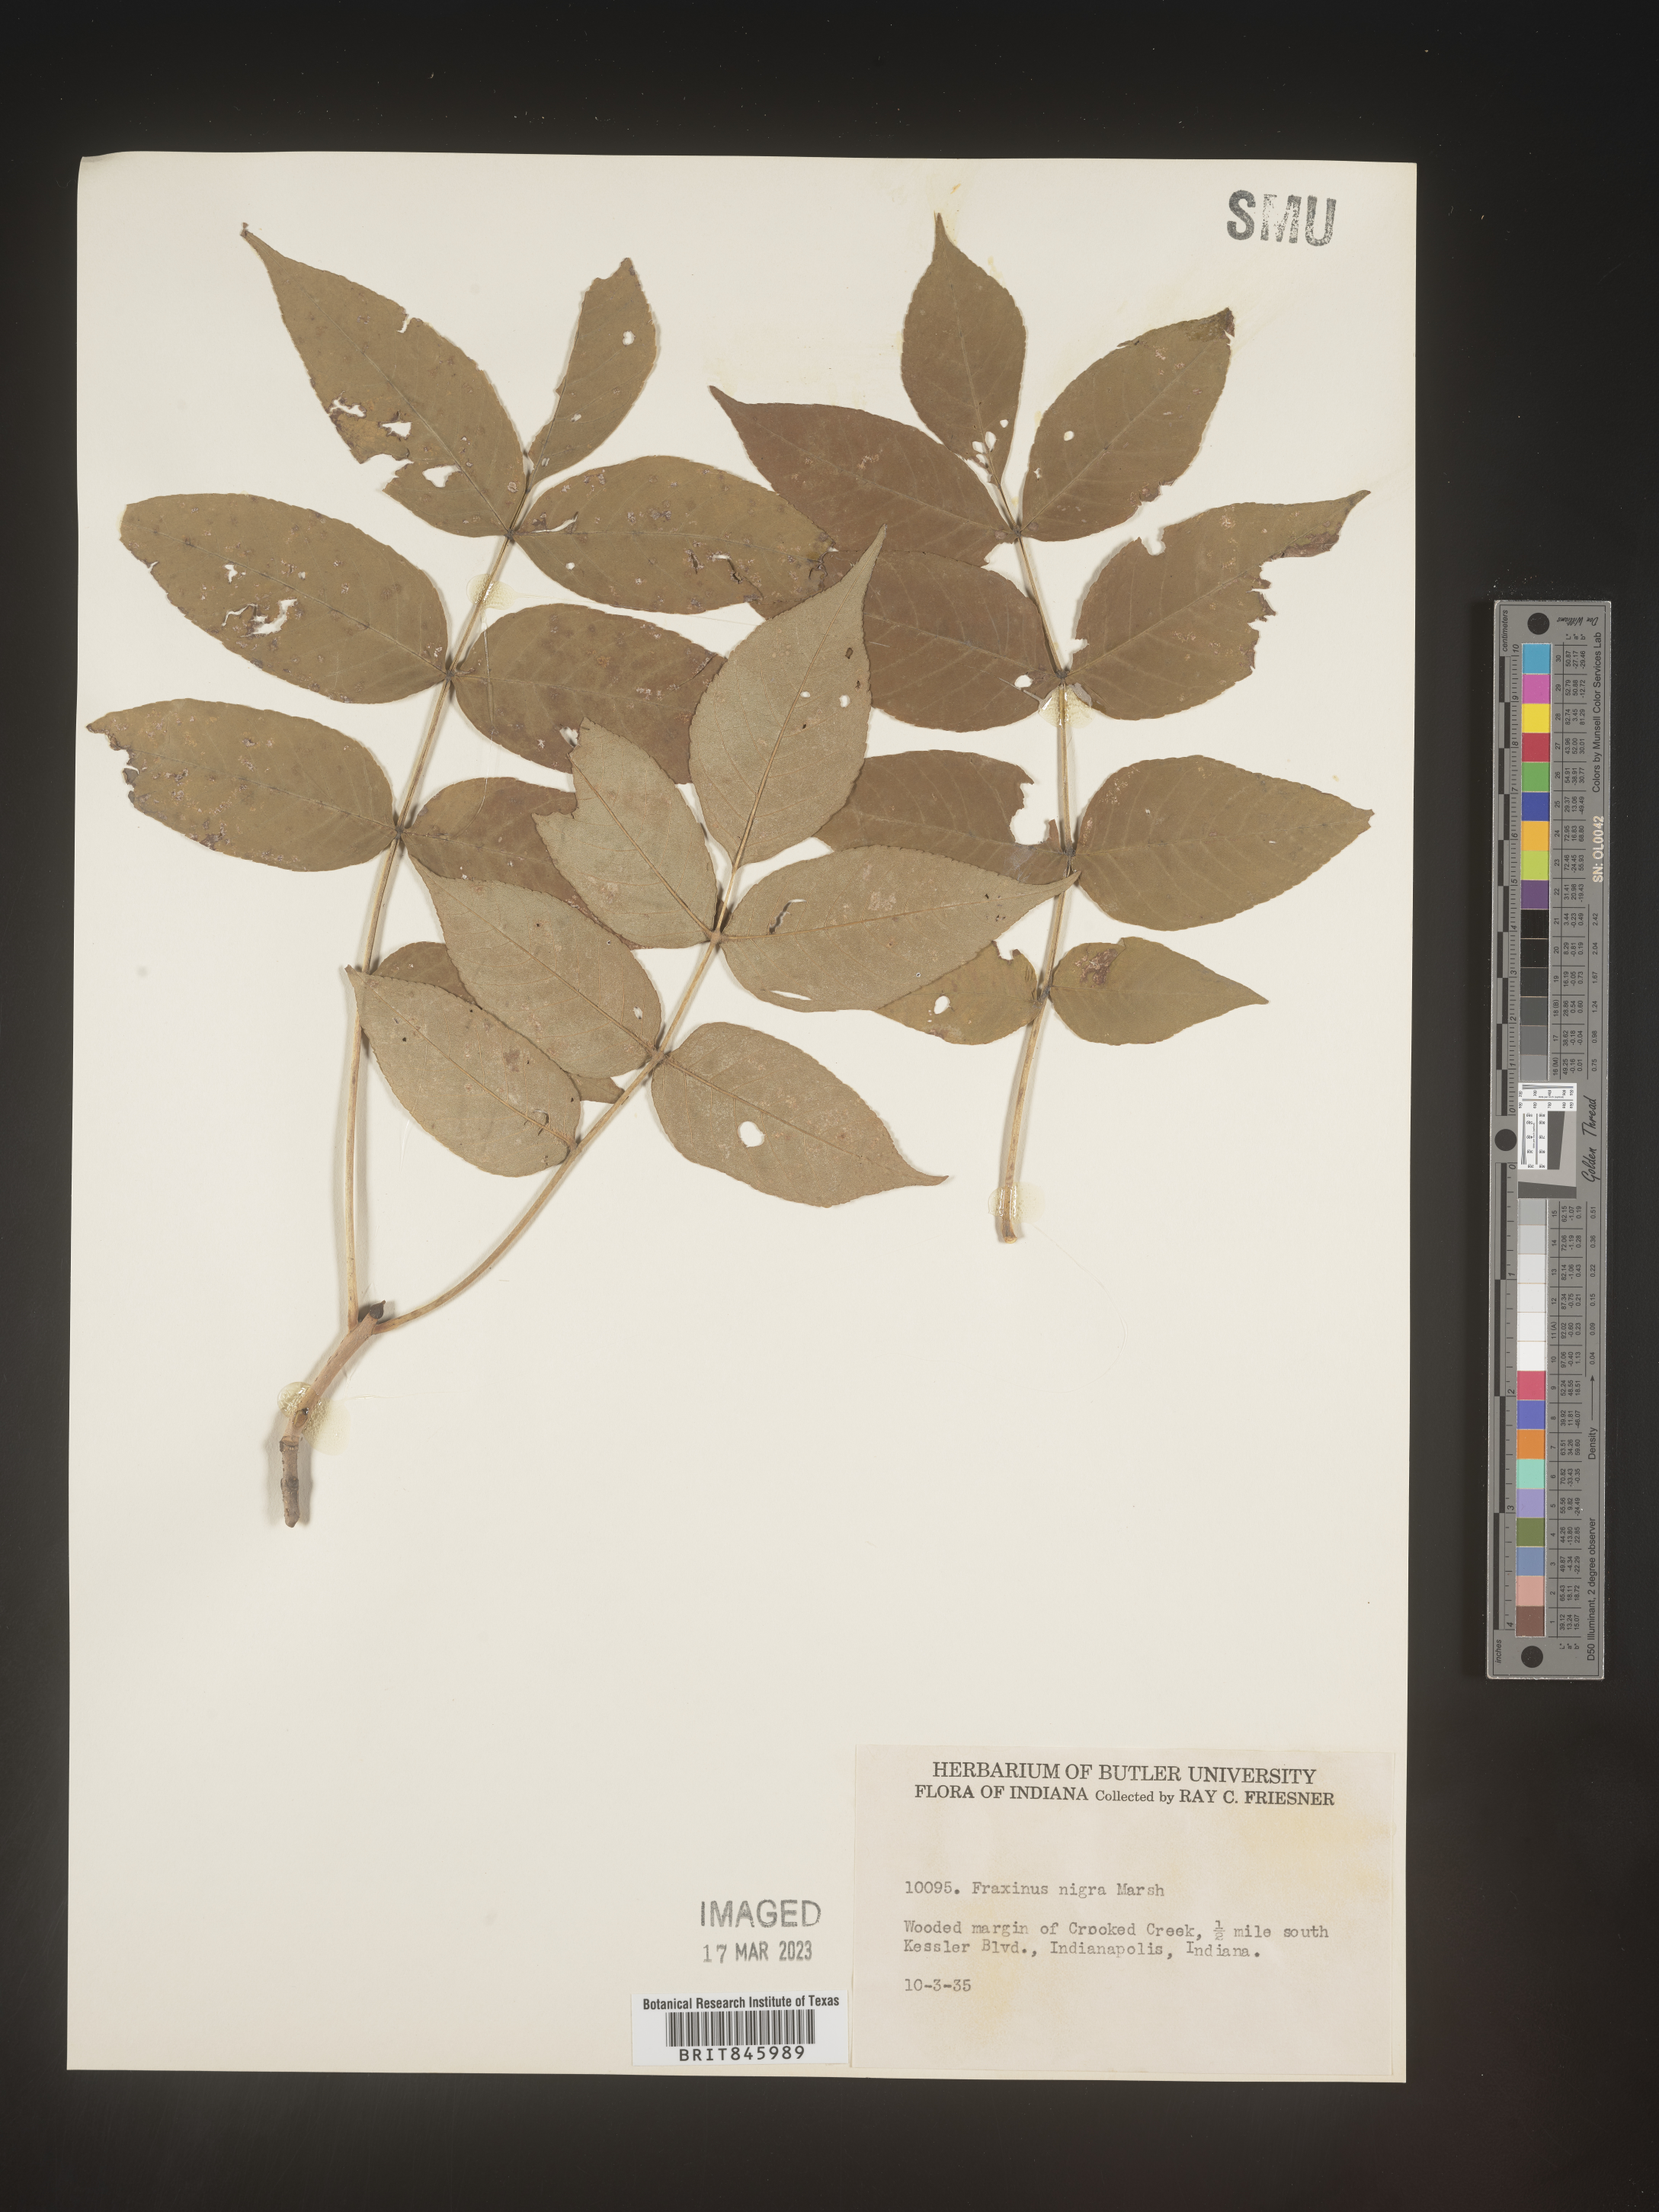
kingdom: Plantae
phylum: Tracheophyta
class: Magnoliopsida
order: Lamiales
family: Oleaceae
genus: Fraxinus
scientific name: Fraxinus nigra
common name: Black ash
